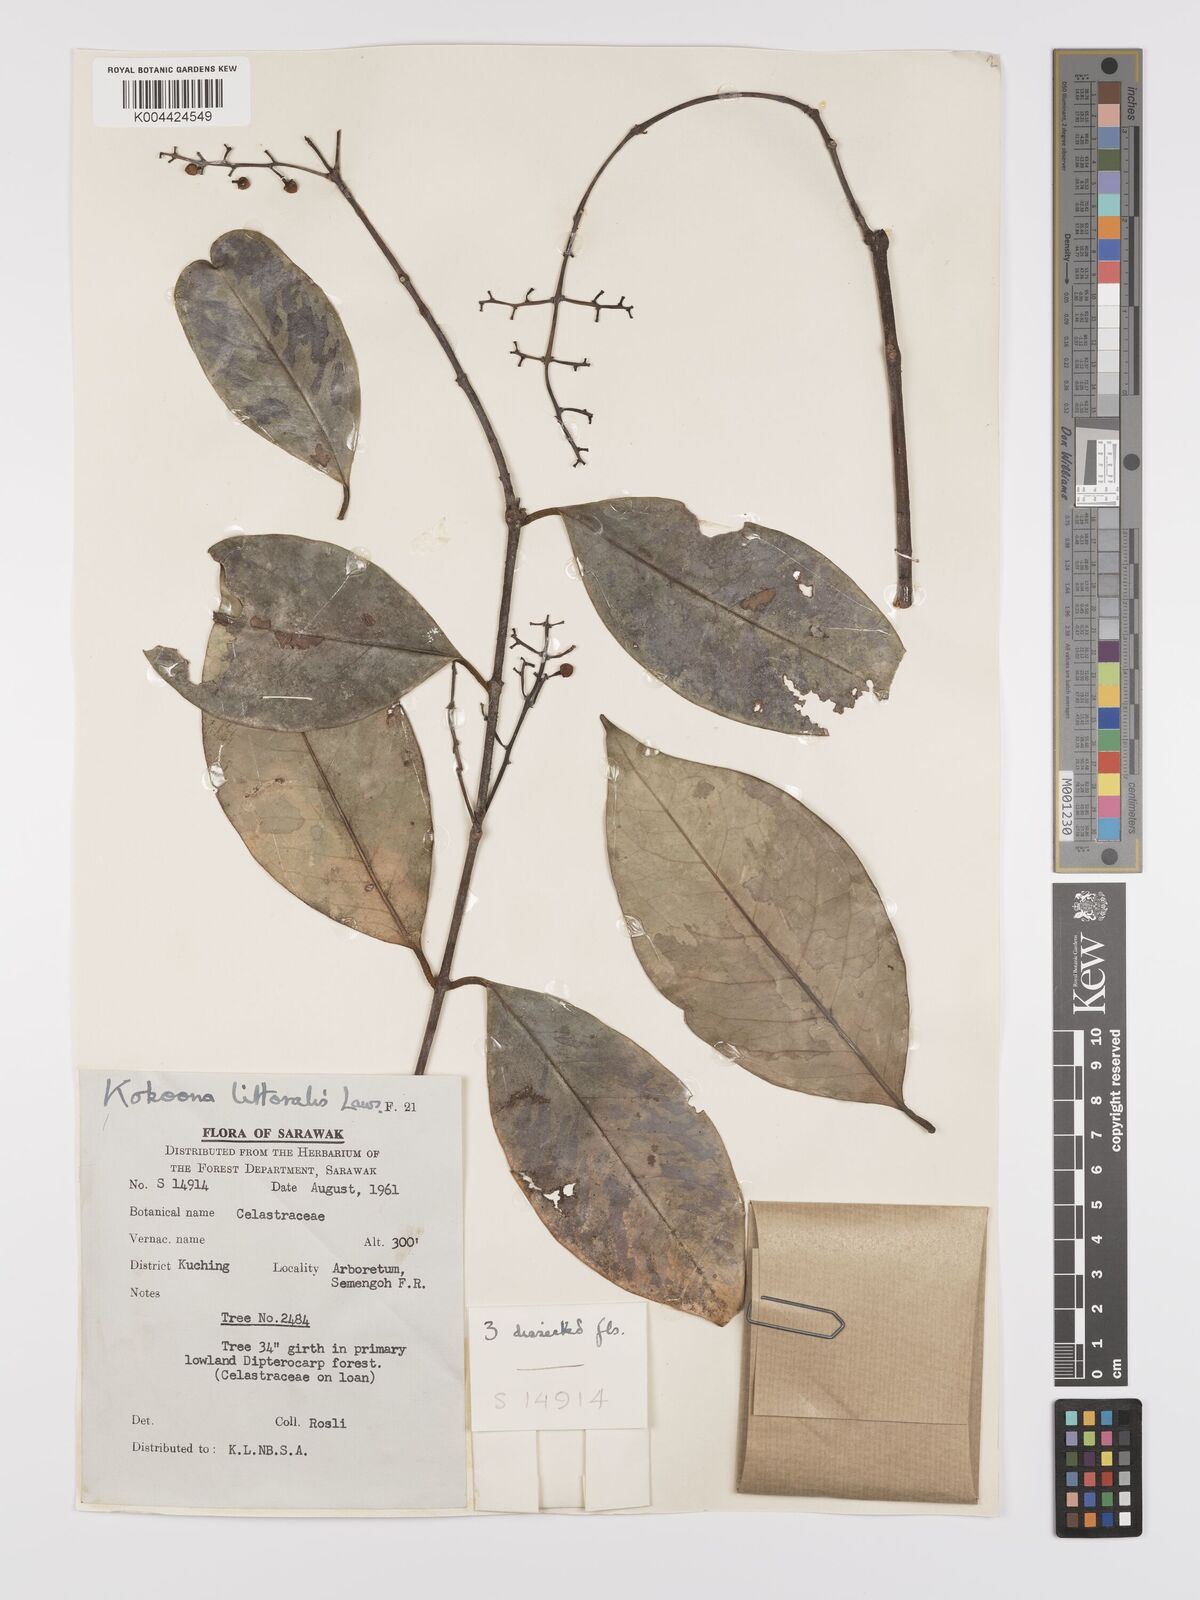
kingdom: Plantae
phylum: Tracheophyta
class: Magnoliopsida
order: Celastrales
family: Celastraceae
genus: Kokoona
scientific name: Kokoona littoralis
